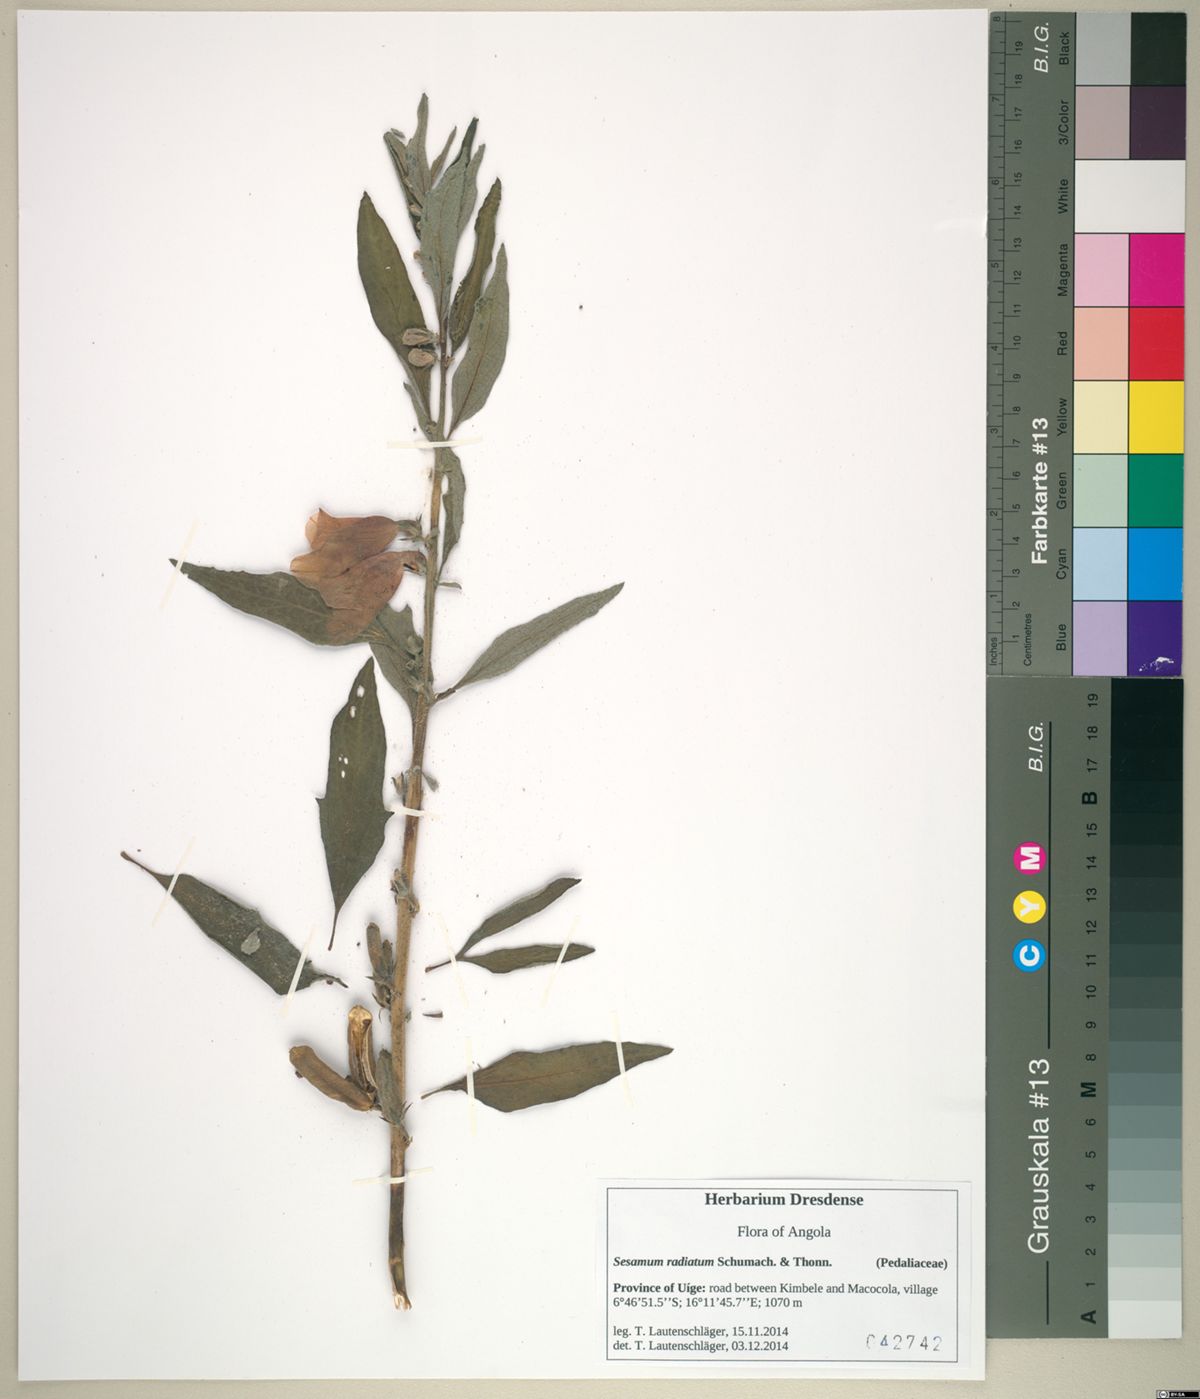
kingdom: Plantae
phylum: Tracheophyta
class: Magnoliopsida
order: Lamiales
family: Pedaliaceae
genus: Sesamum
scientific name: Sesamum radiatum
